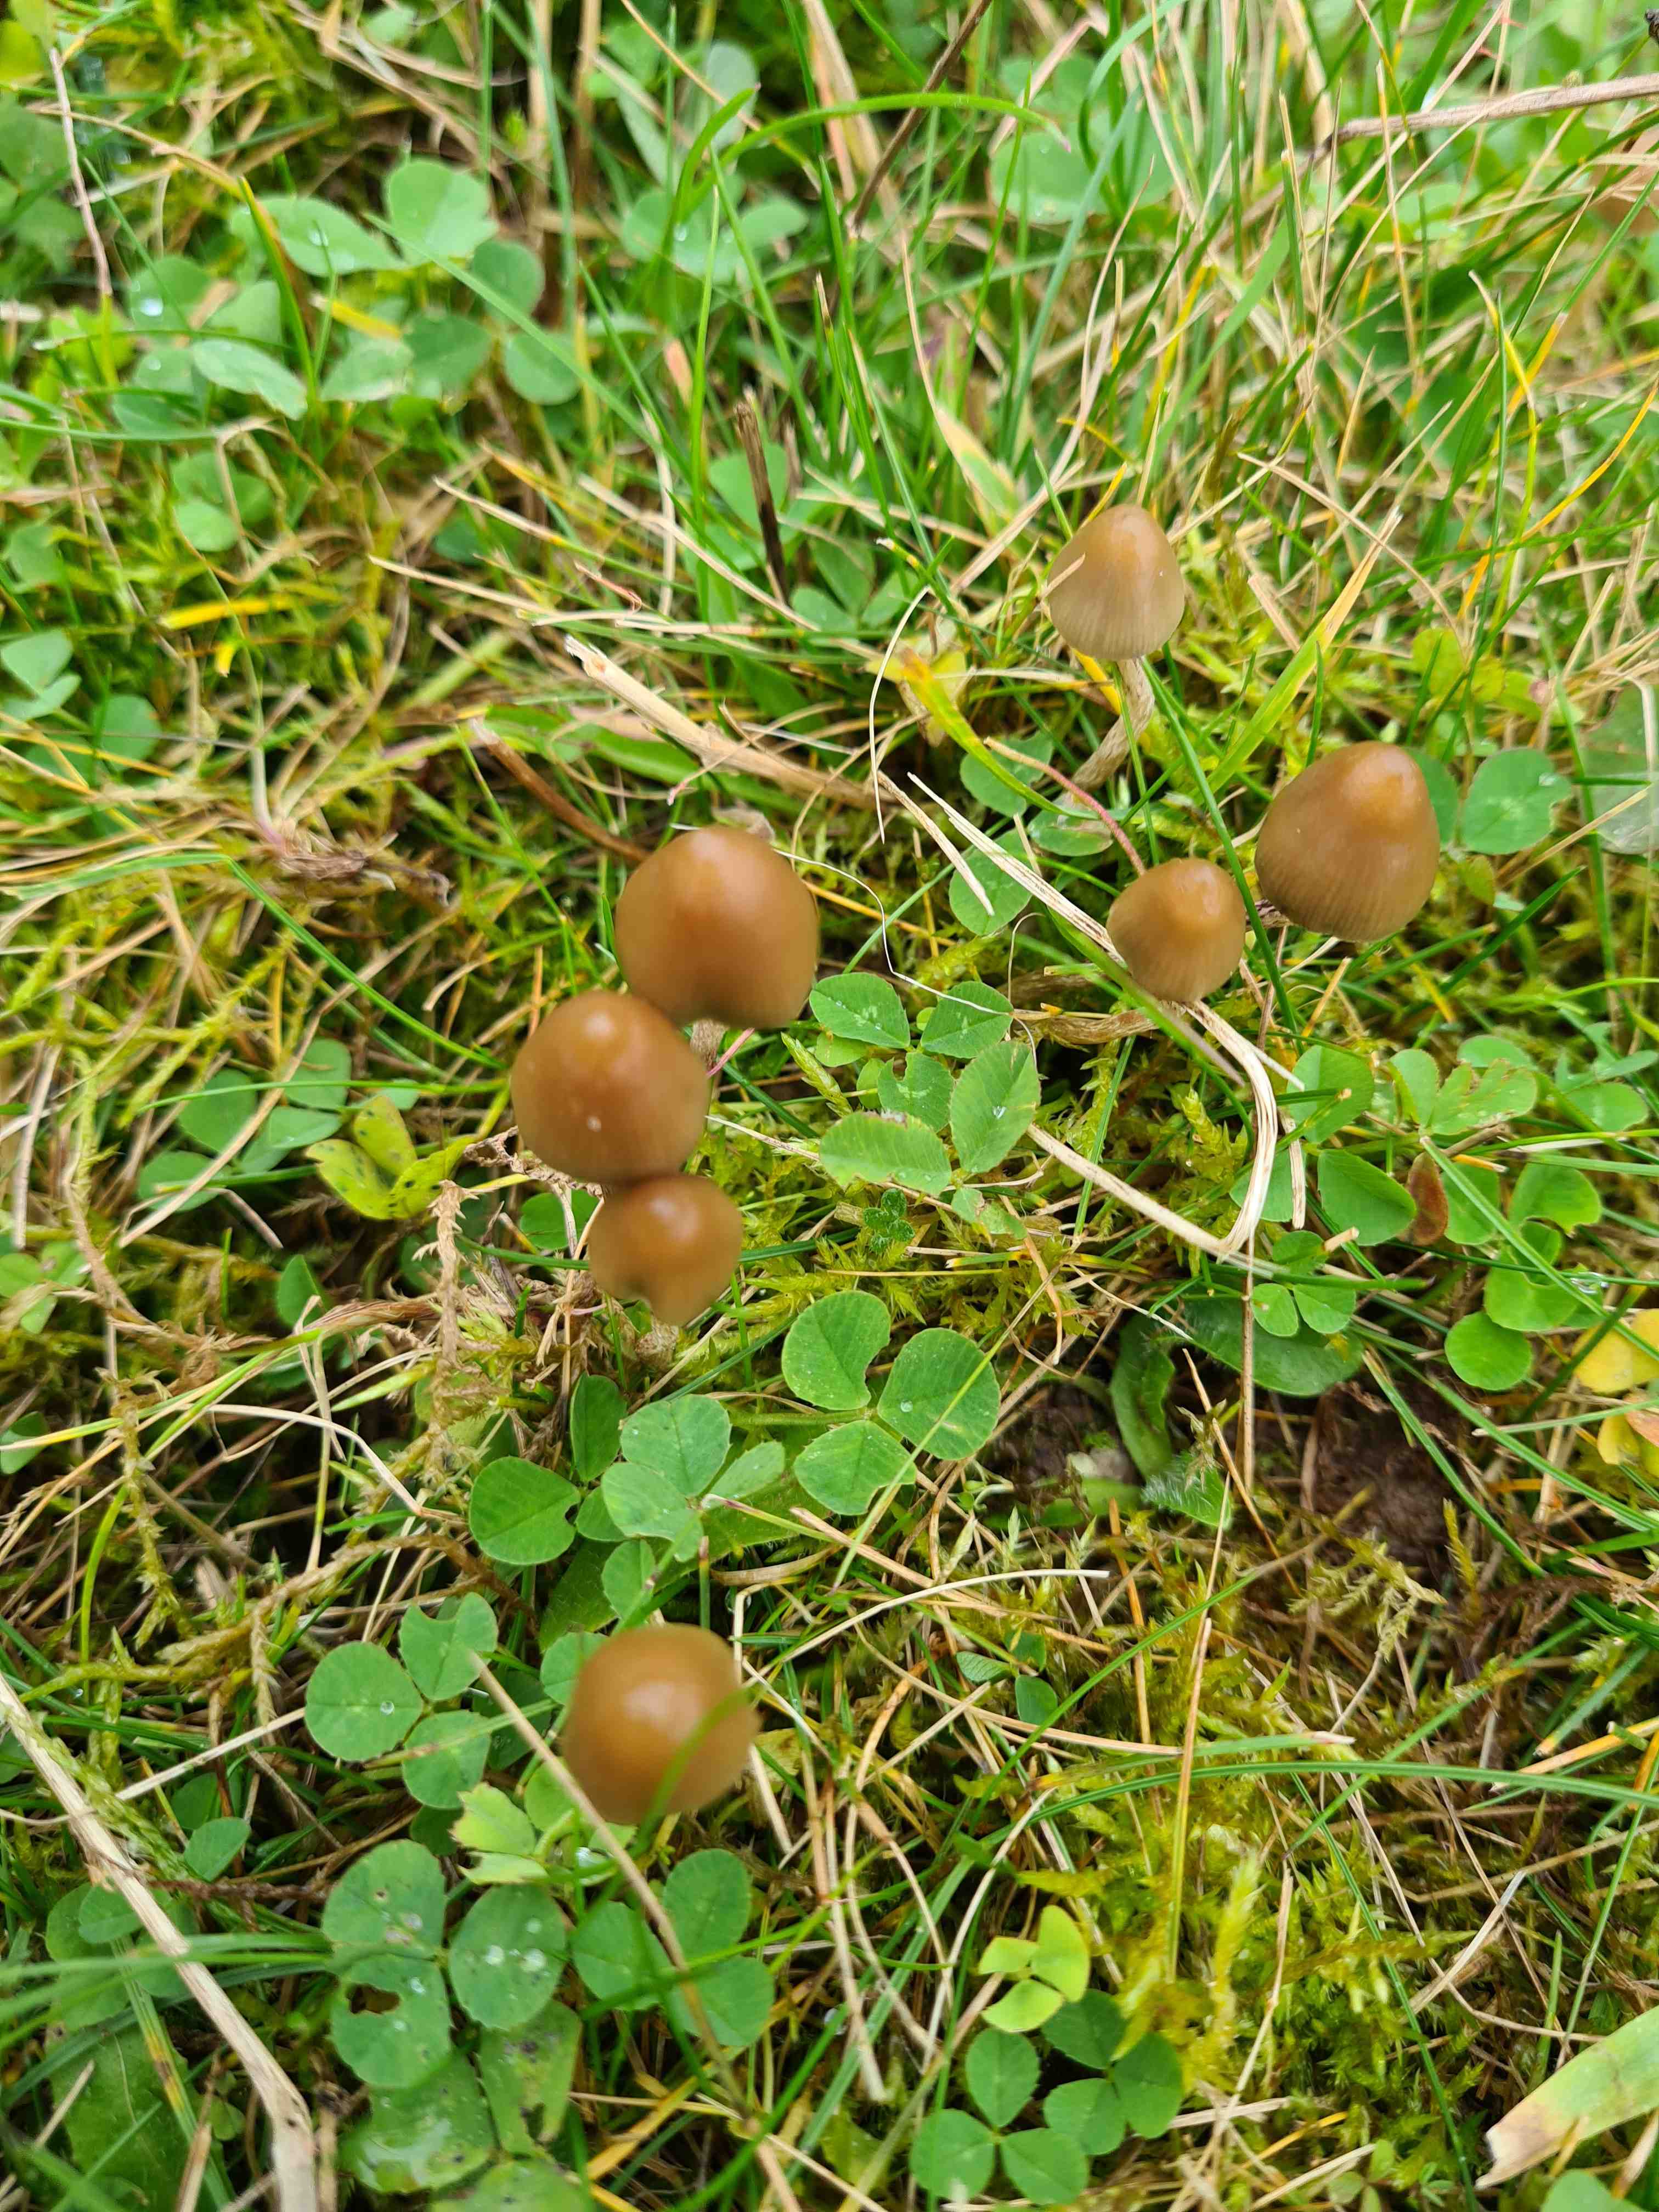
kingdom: Fungi
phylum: Basidiomycota
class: Agaricomycetes
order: Agaricales
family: Hymenogastraceae
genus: Psilocybe
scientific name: Psilocybe semilanceata
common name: spids nøgenhat
